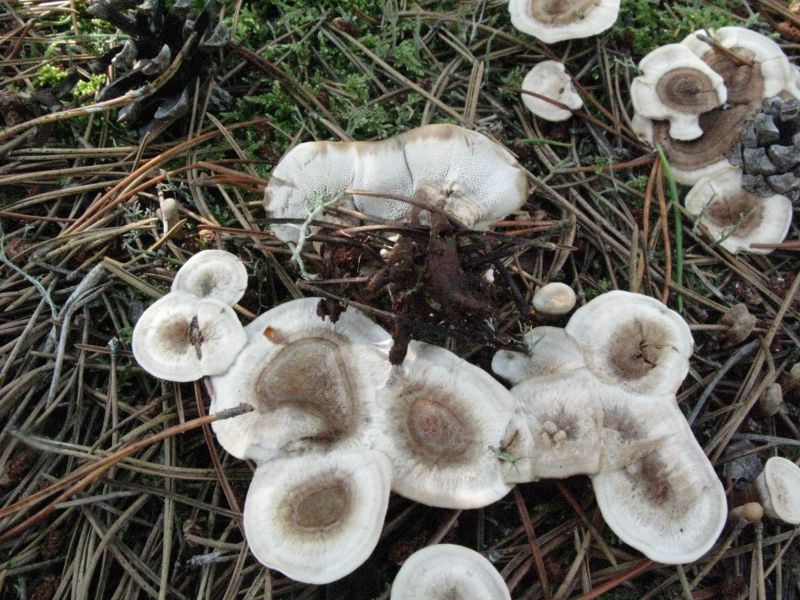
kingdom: Fungi
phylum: Basidiomycota
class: Agaricomycetes
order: Thelephorales
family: Thelephoraceae
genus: Phellodon
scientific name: Phellodon tomentosus
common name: tragtformet duftpigsvamp
